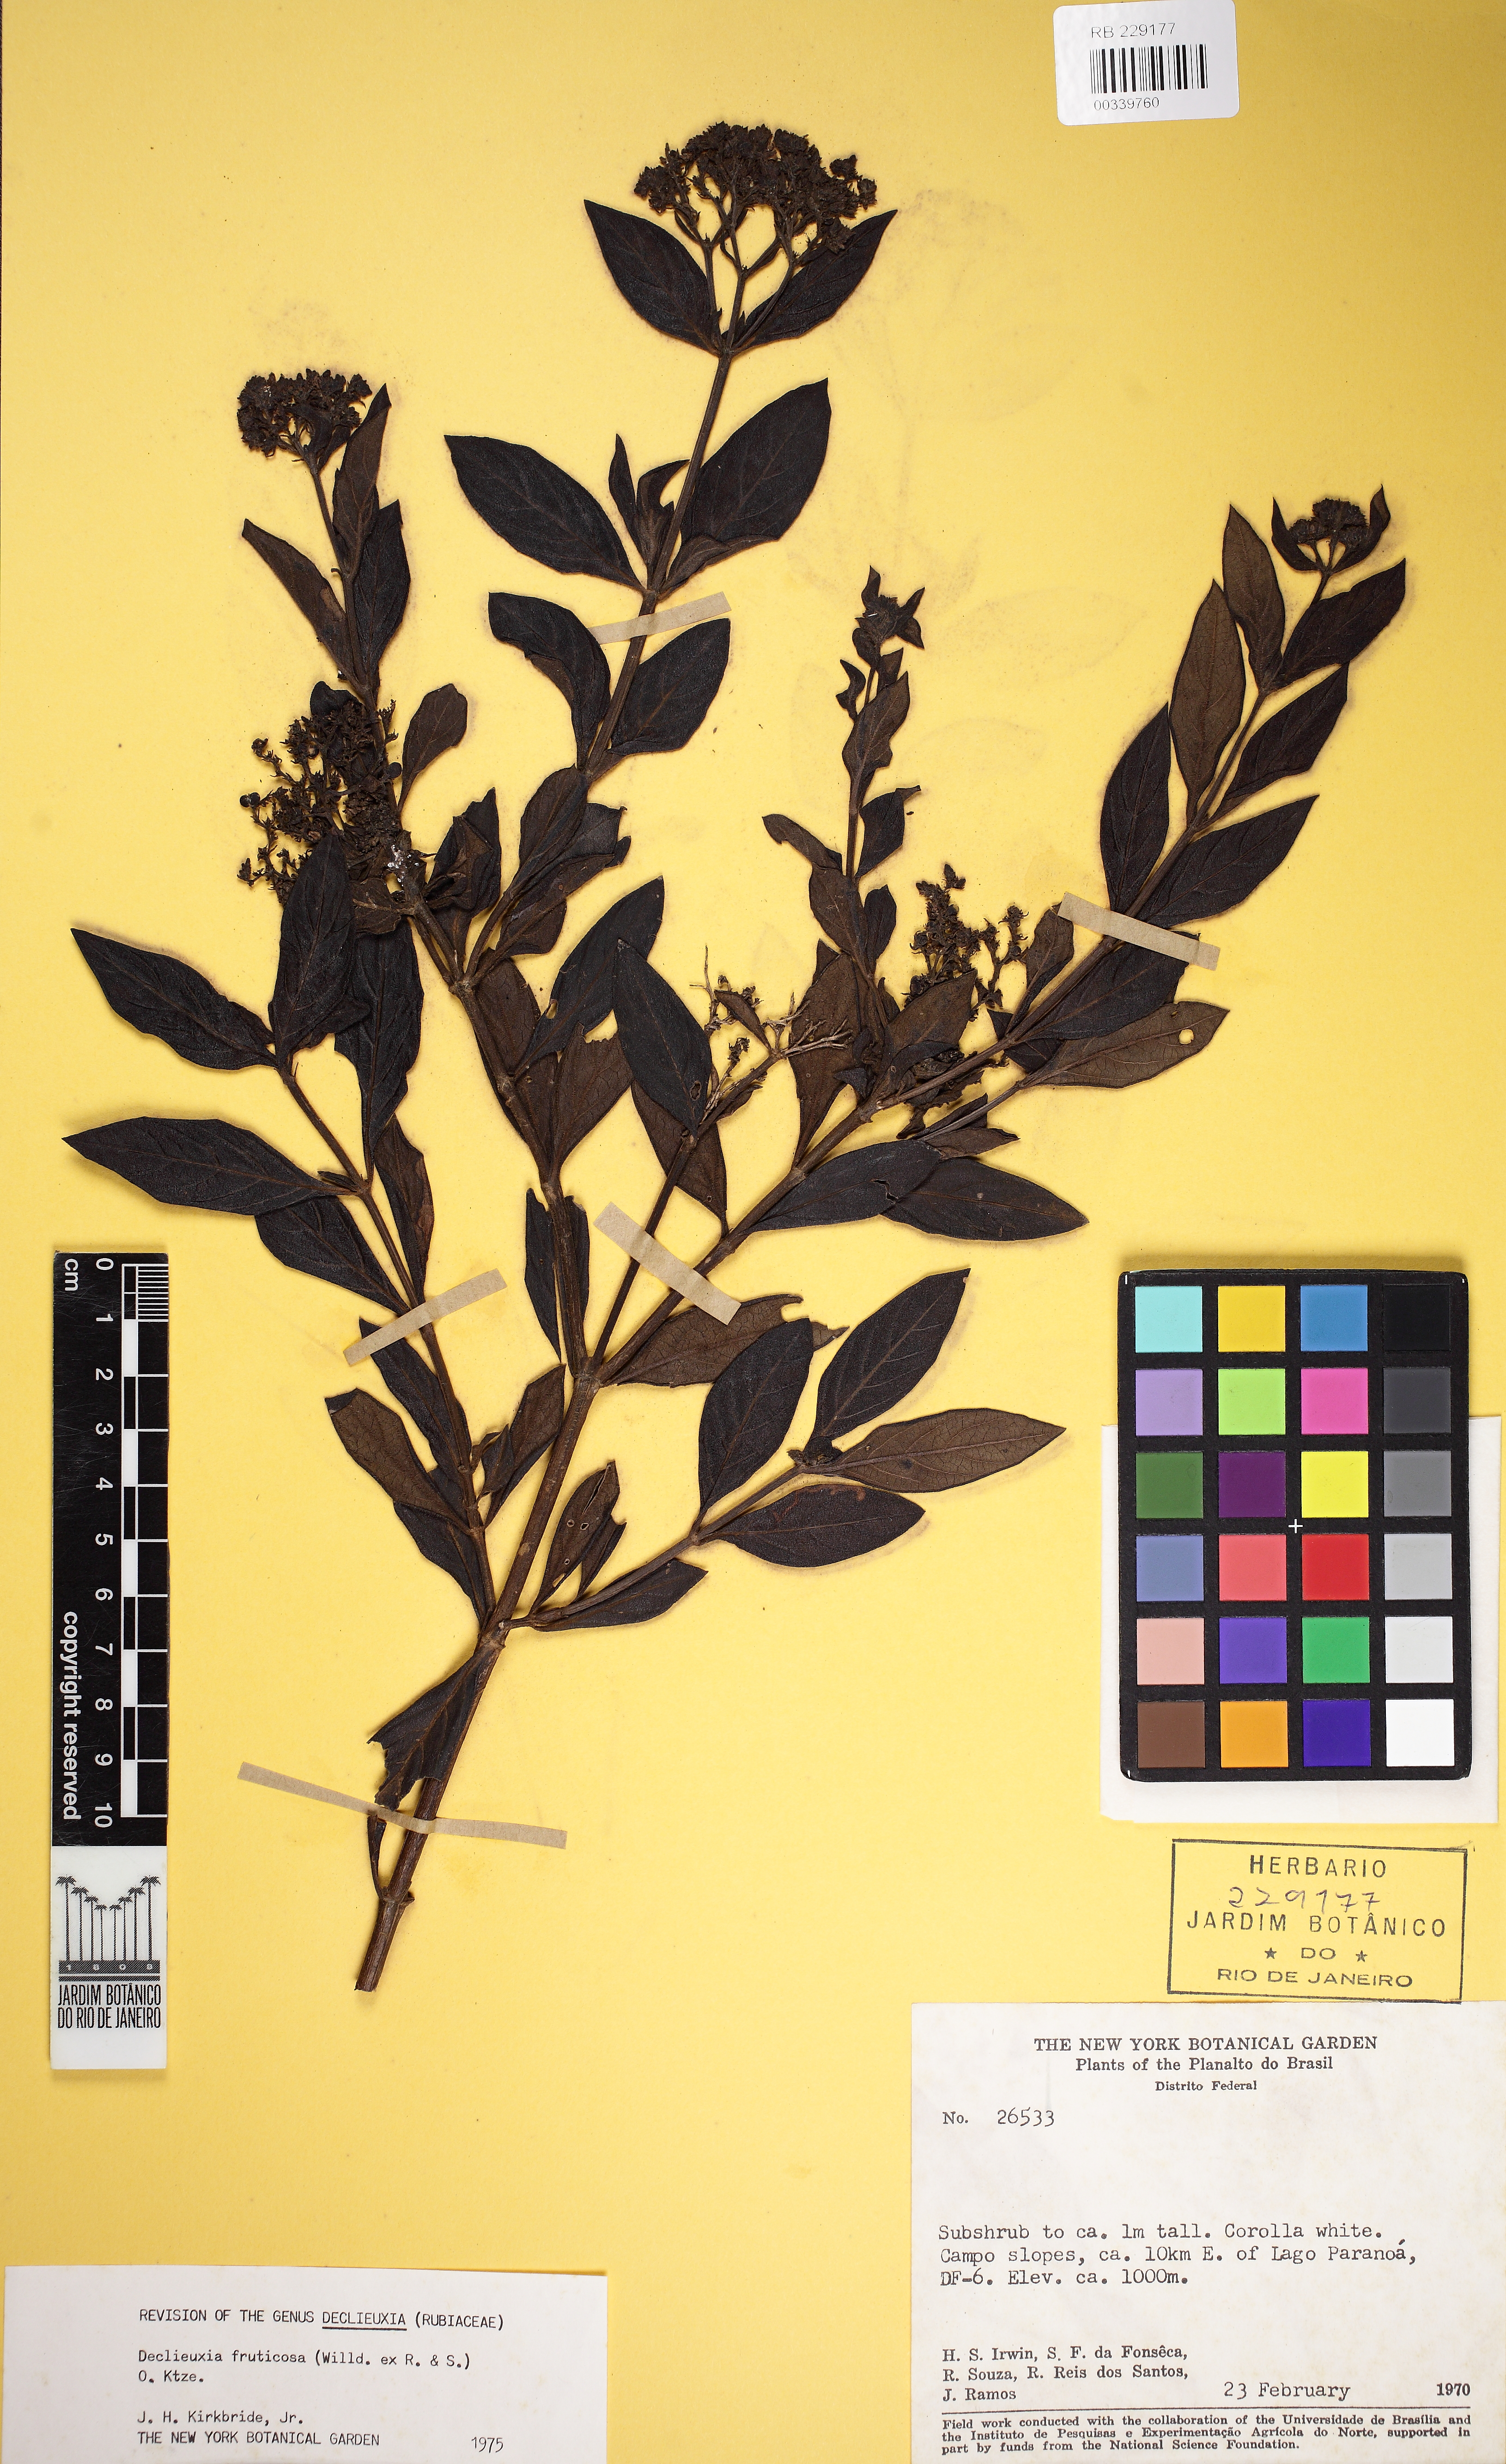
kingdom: Plantae
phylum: Tracheophyta
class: Magnoliopsida
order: Gentianales
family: Rubiaceae
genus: Declieuxia
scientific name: Declieuxia fruticosa
